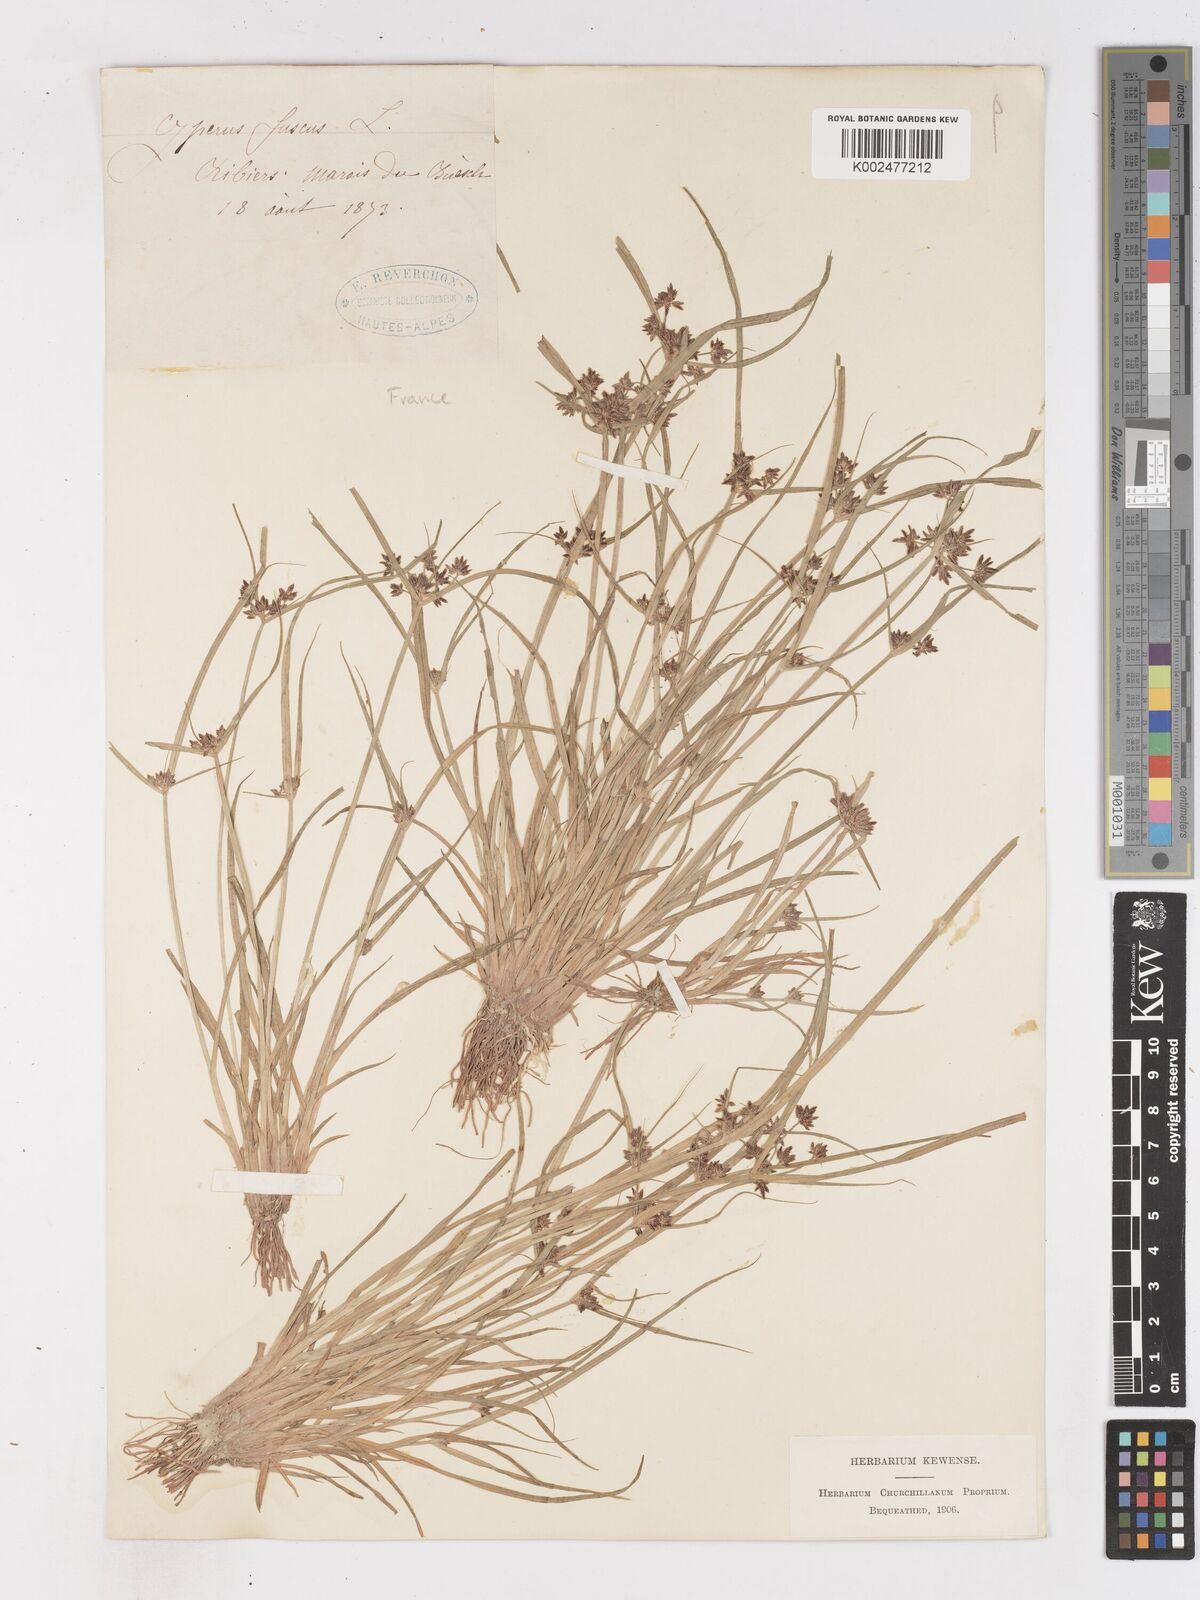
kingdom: Plantae
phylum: Tracheophyta
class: Liliopsida
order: Poales
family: Cyperaceae
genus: Cyperus
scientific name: Cyperus fuscus
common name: Brown galingale
